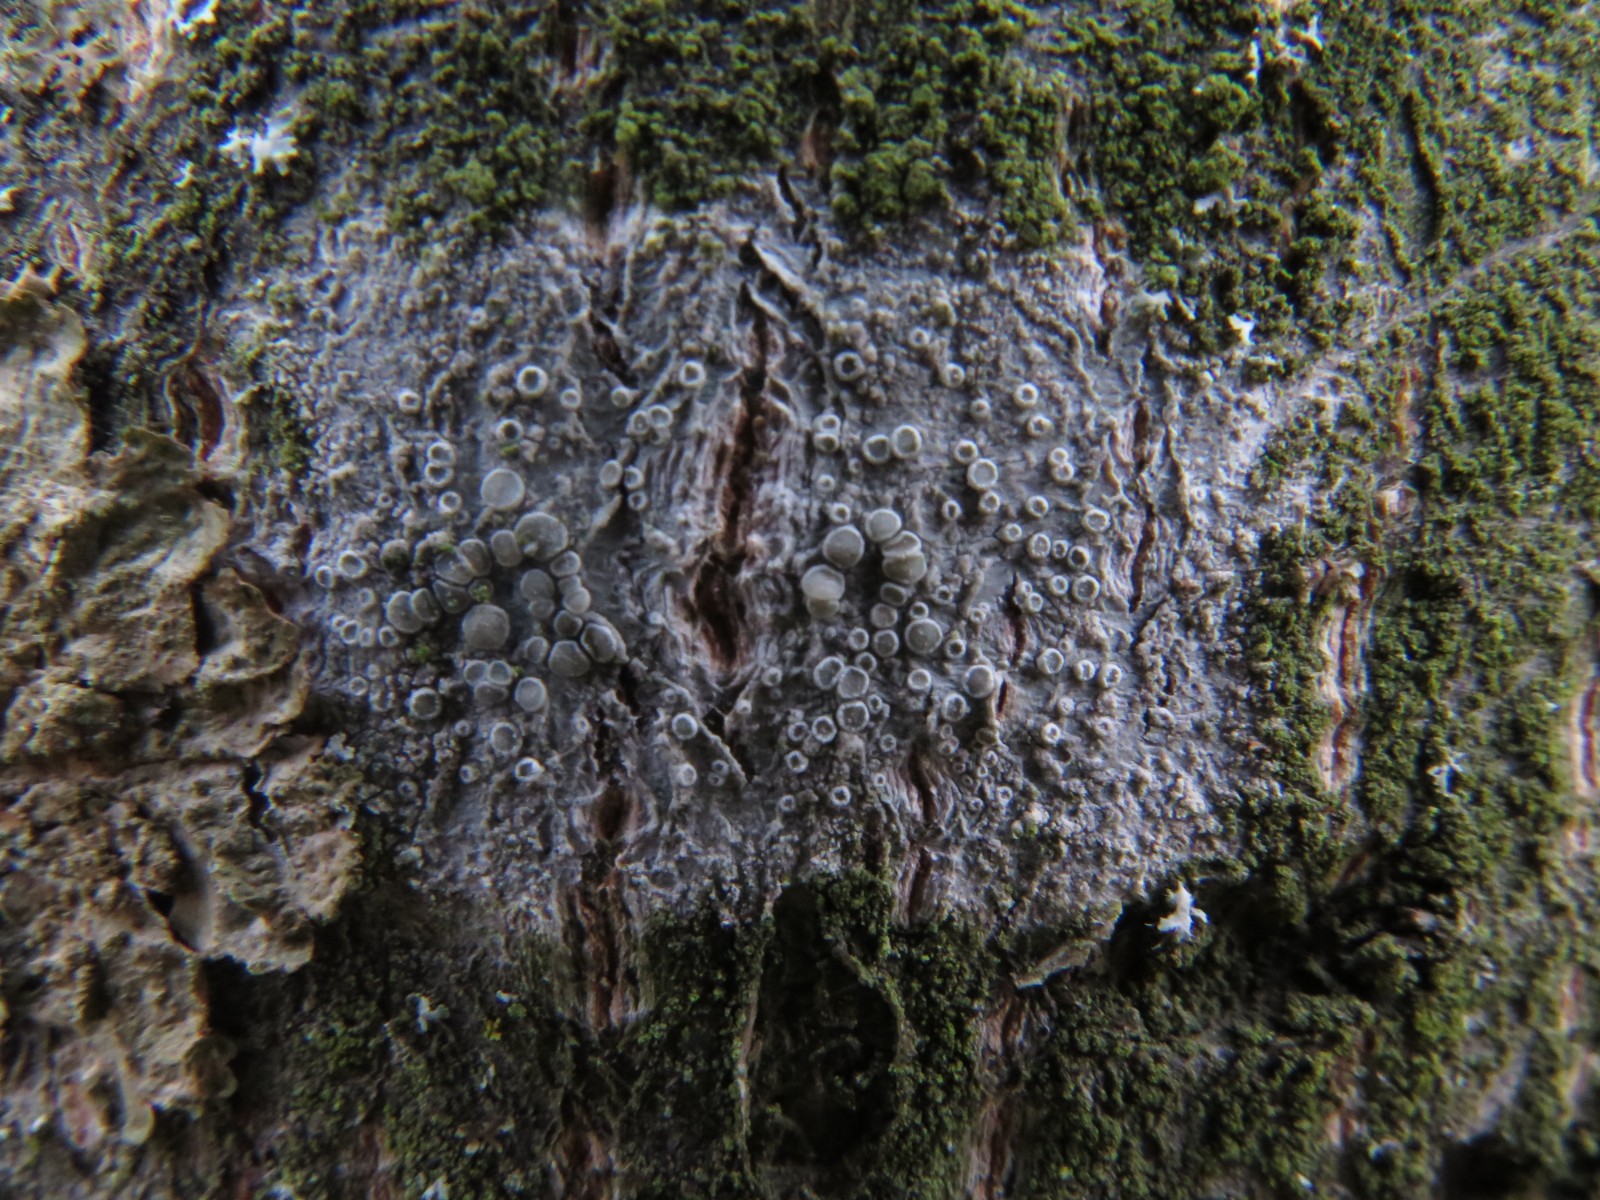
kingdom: Fungi
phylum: Ascomycota
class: Lecanoromycetes
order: Lecanorales
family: Lecanoraceae
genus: Glaucomaria
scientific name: Glaucomaria carpinea
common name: hviddugget kantskivelav
